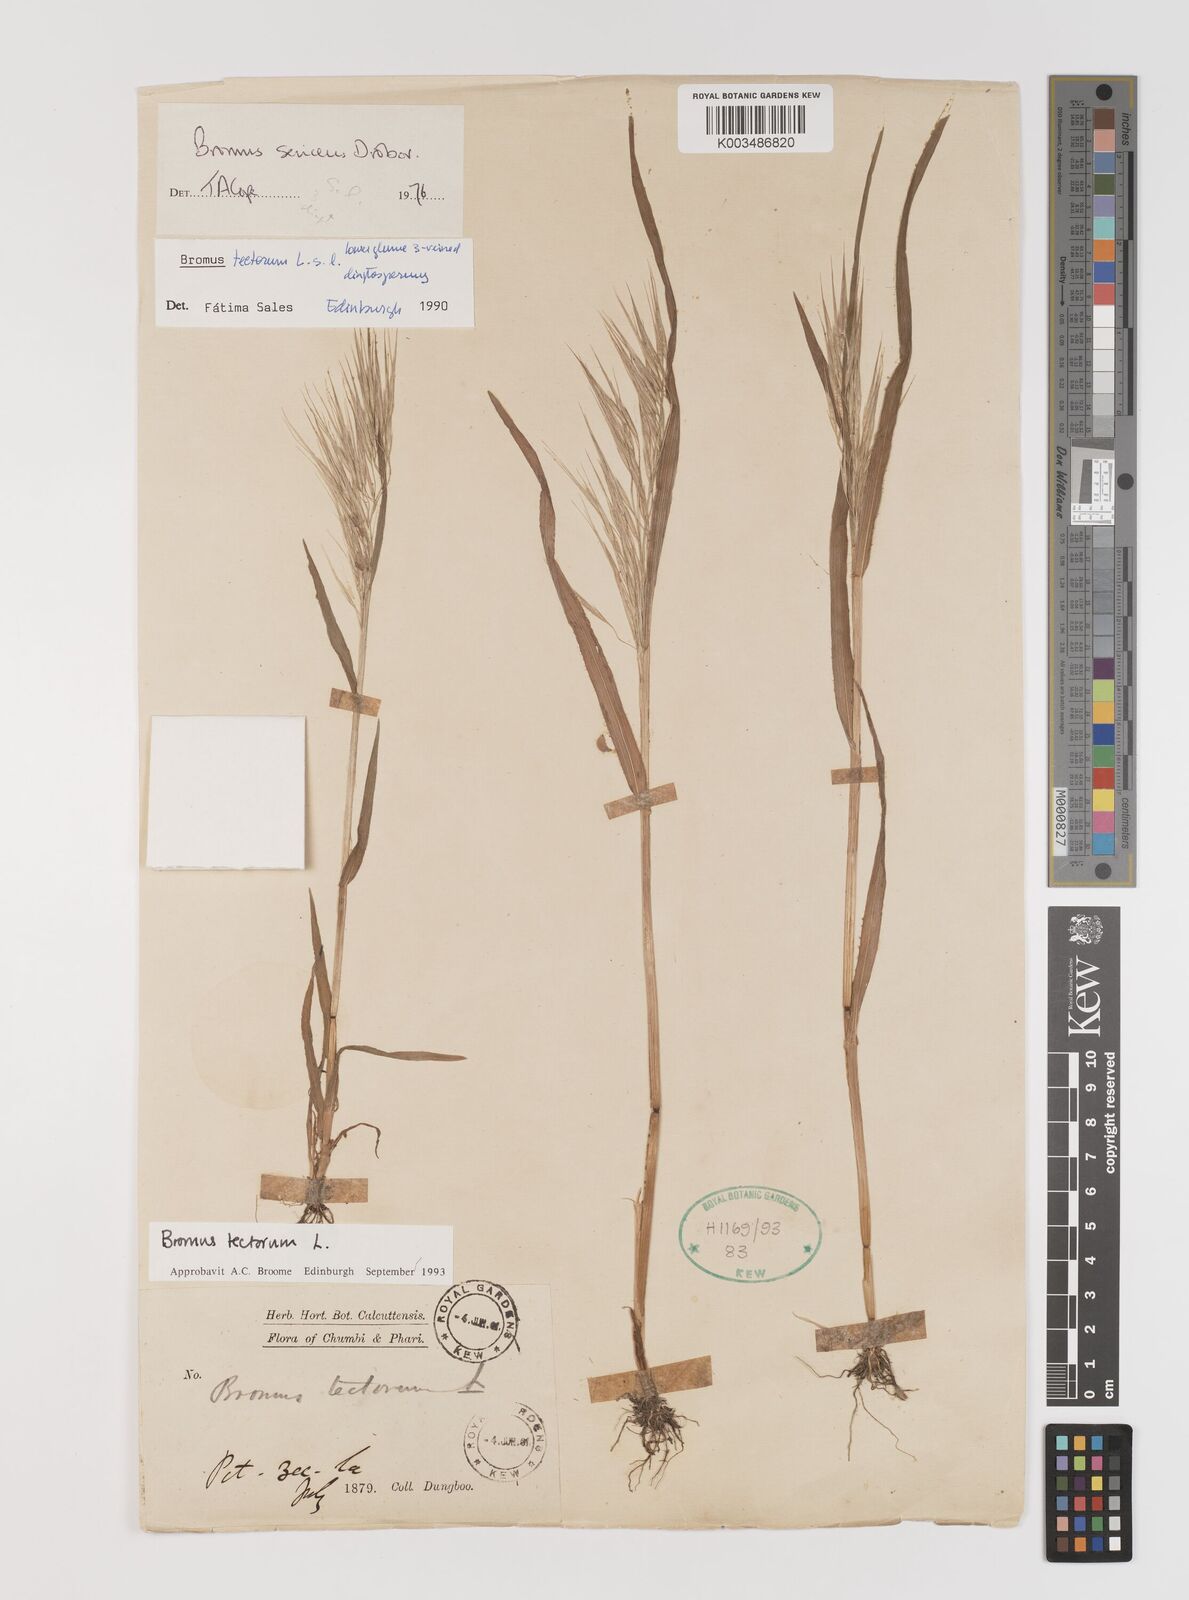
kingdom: Plantae
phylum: Tracheophyta
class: Liliopsida
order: Poales
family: Poaceae
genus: Bromus
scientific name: Bromus tectorum
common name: Cheatgrass
